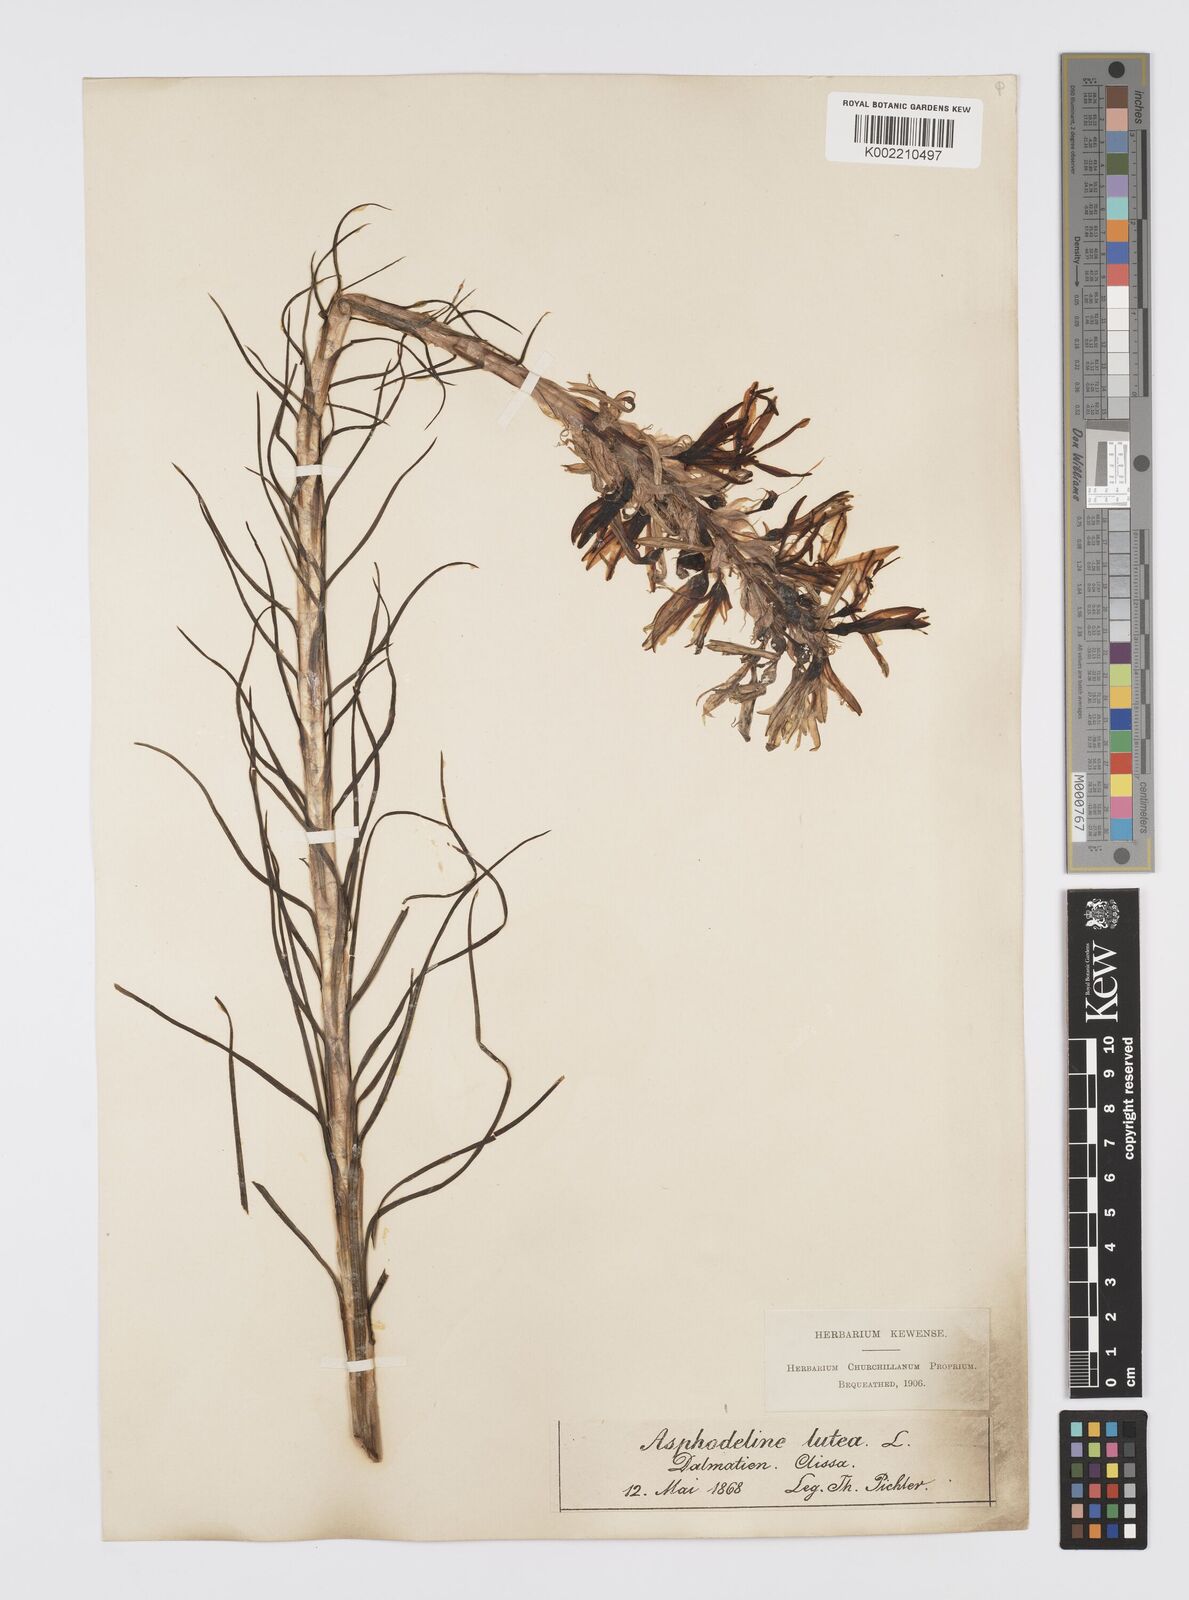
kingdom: Plantae
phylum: Tracheophyta
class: Liliopsida
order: Asparagales
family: Asphodelaceae
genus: Asphodeline
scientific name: Asphodeline lutea
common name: Yellow asphodel
